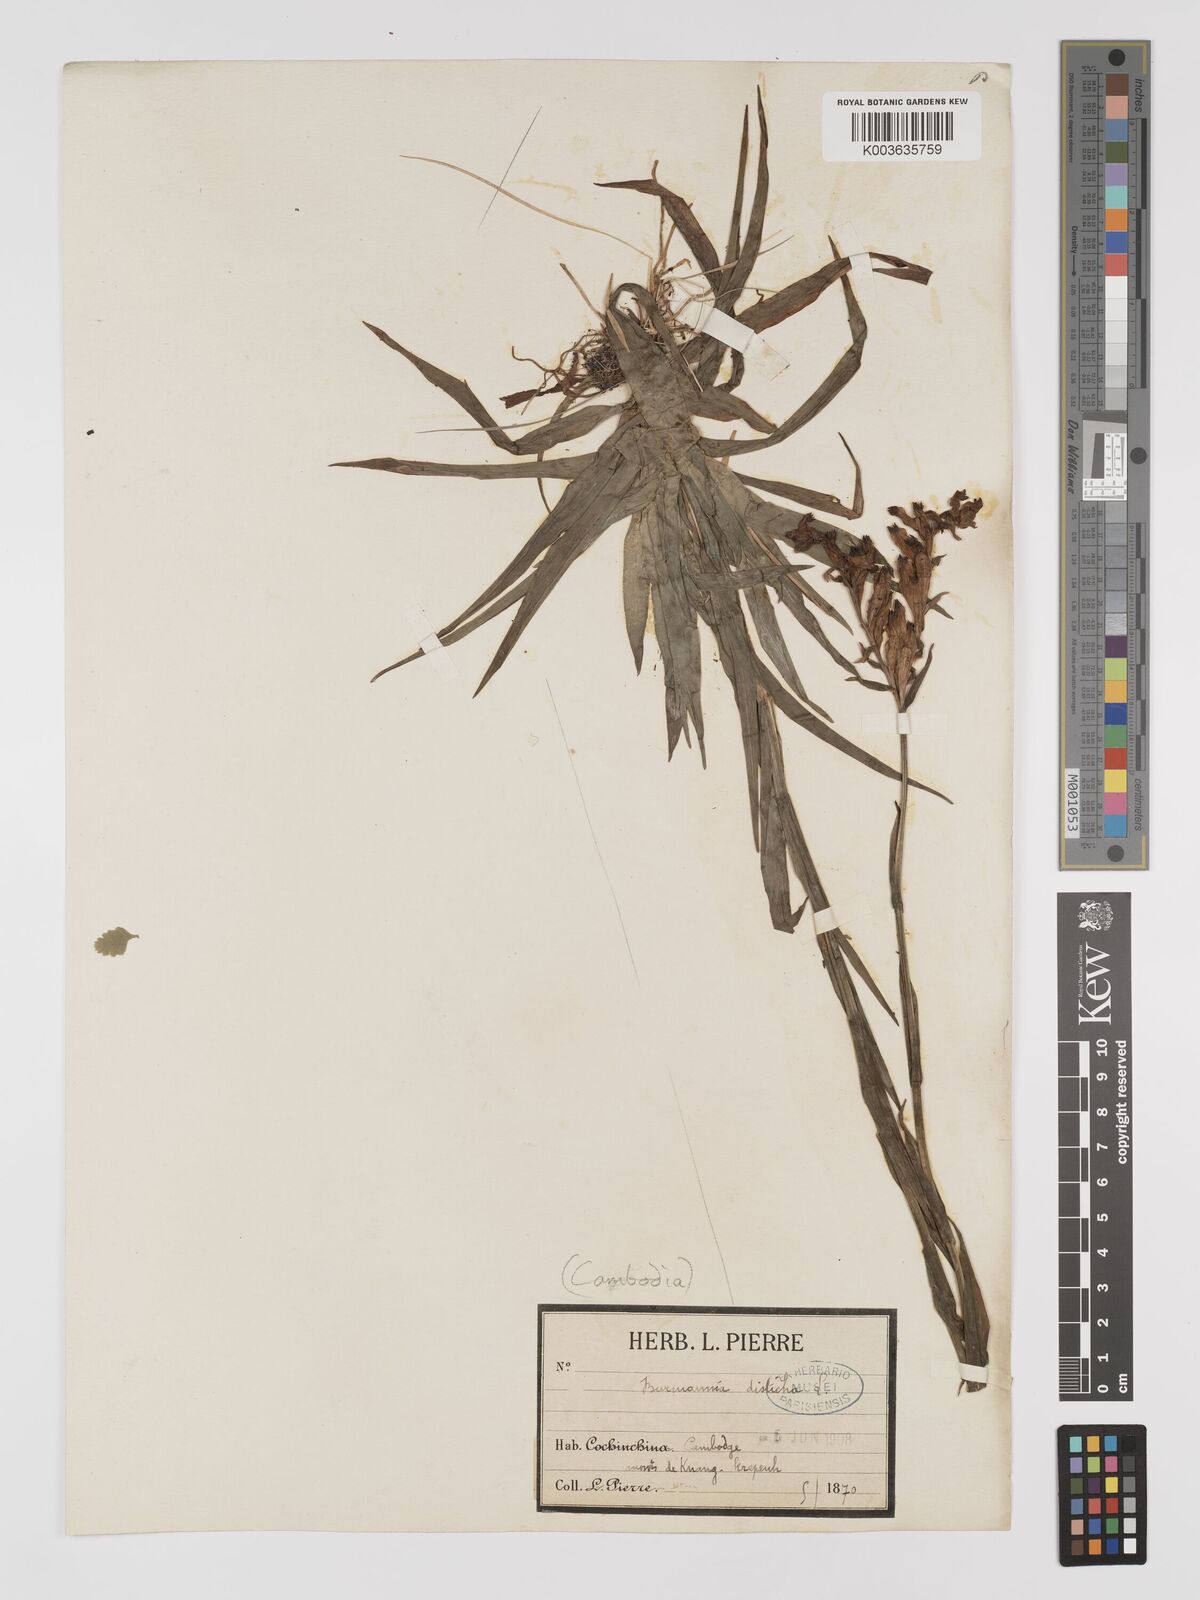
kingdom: Plantae
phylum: Tracheophyta
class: Liliopsida
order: Dioscoreales
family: Burmanniaceae
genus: Burmannia
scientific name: Burmannia disticha
